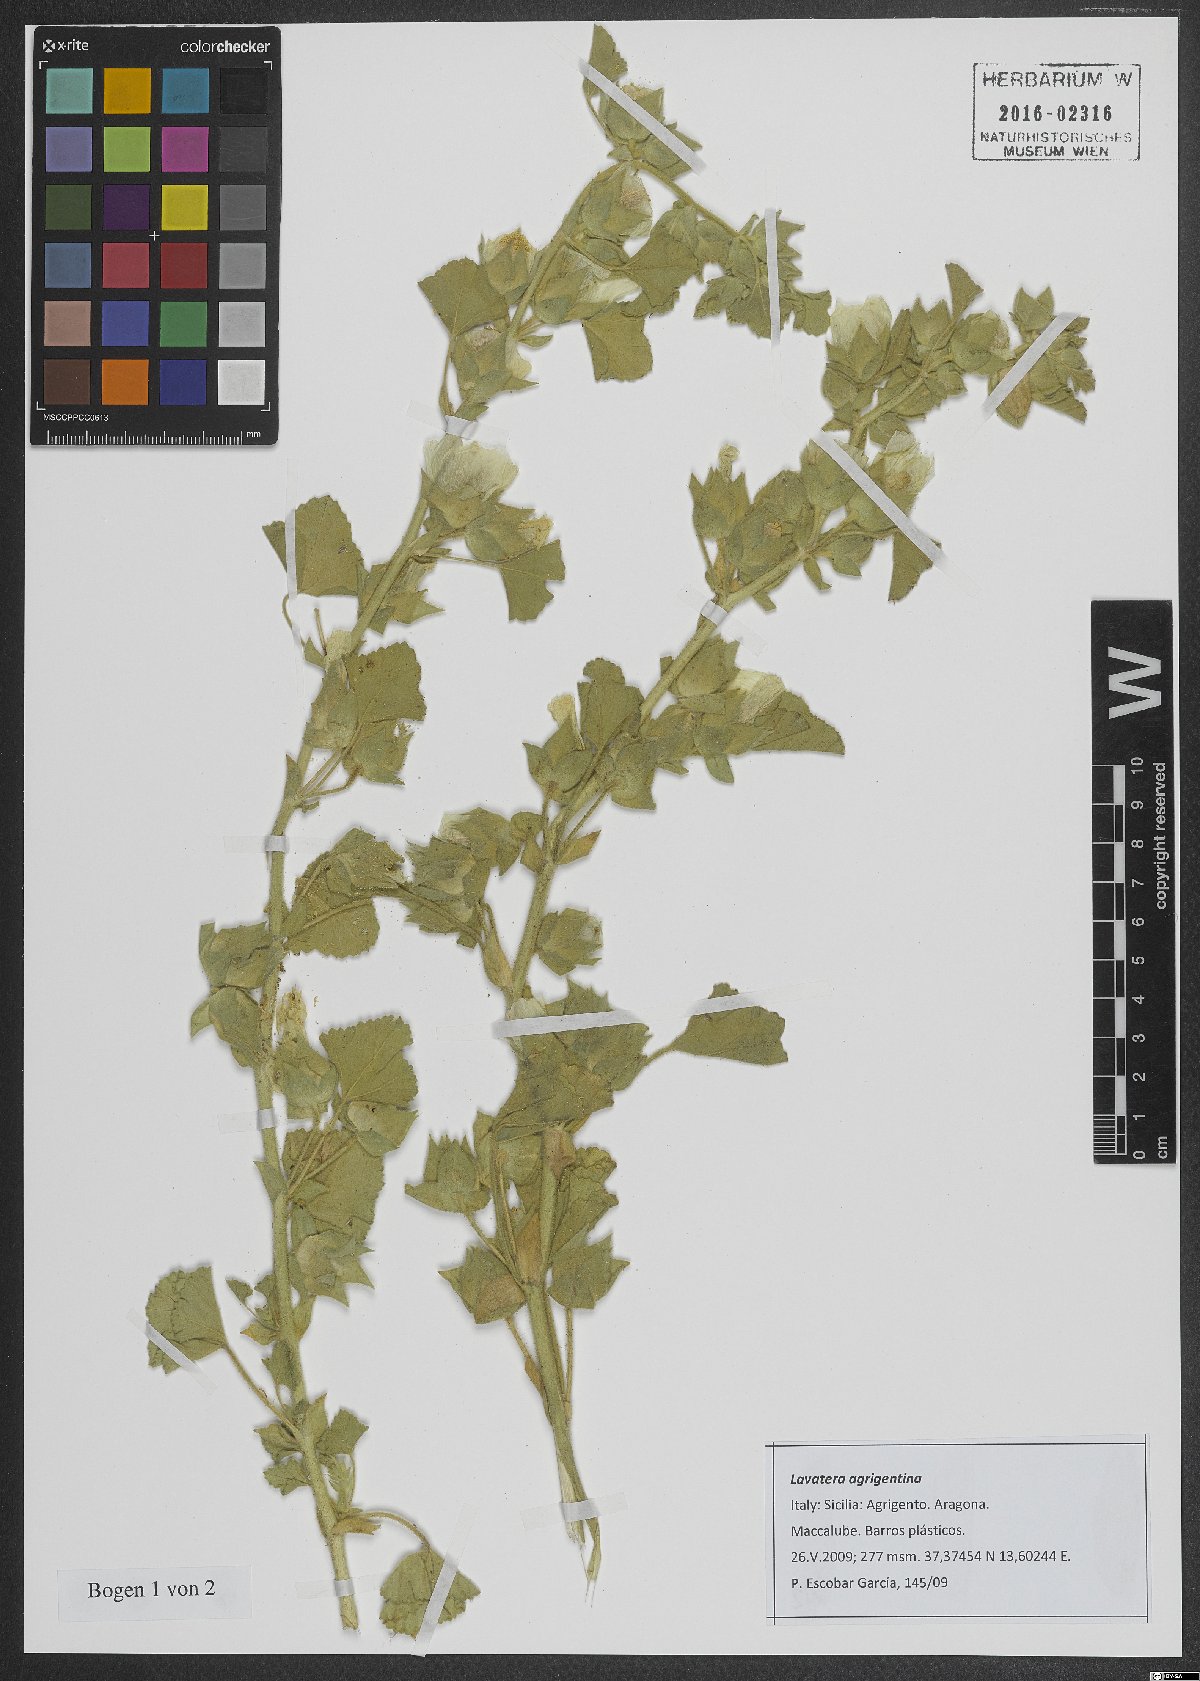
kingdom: Plantae
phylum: Tracheophyta
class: Magnoliopsida
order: Malvales
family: Malvaceae
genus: Malva
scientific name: Malva agrigentina
